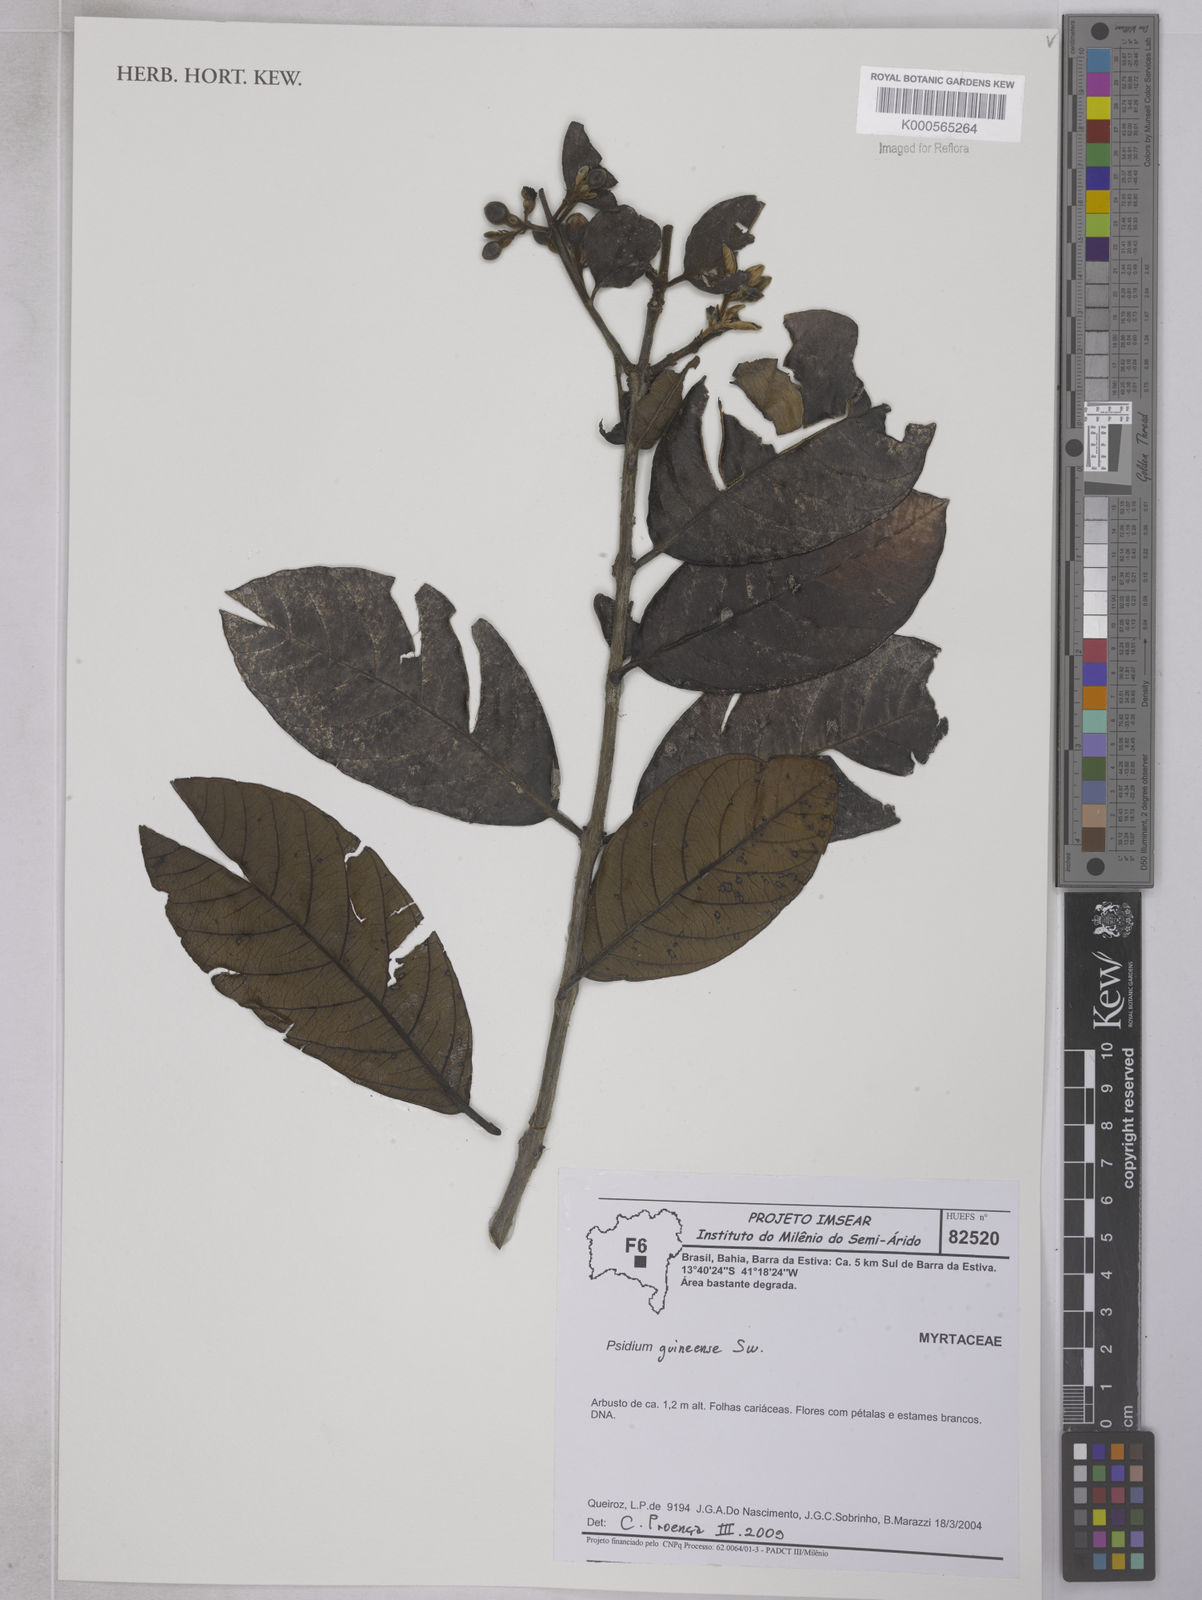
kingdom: Plantae
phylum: Tracheophyta
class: Magnoliopsida
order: Myrtales
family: Myrtaceae
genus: Psidium
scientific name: Psidium
